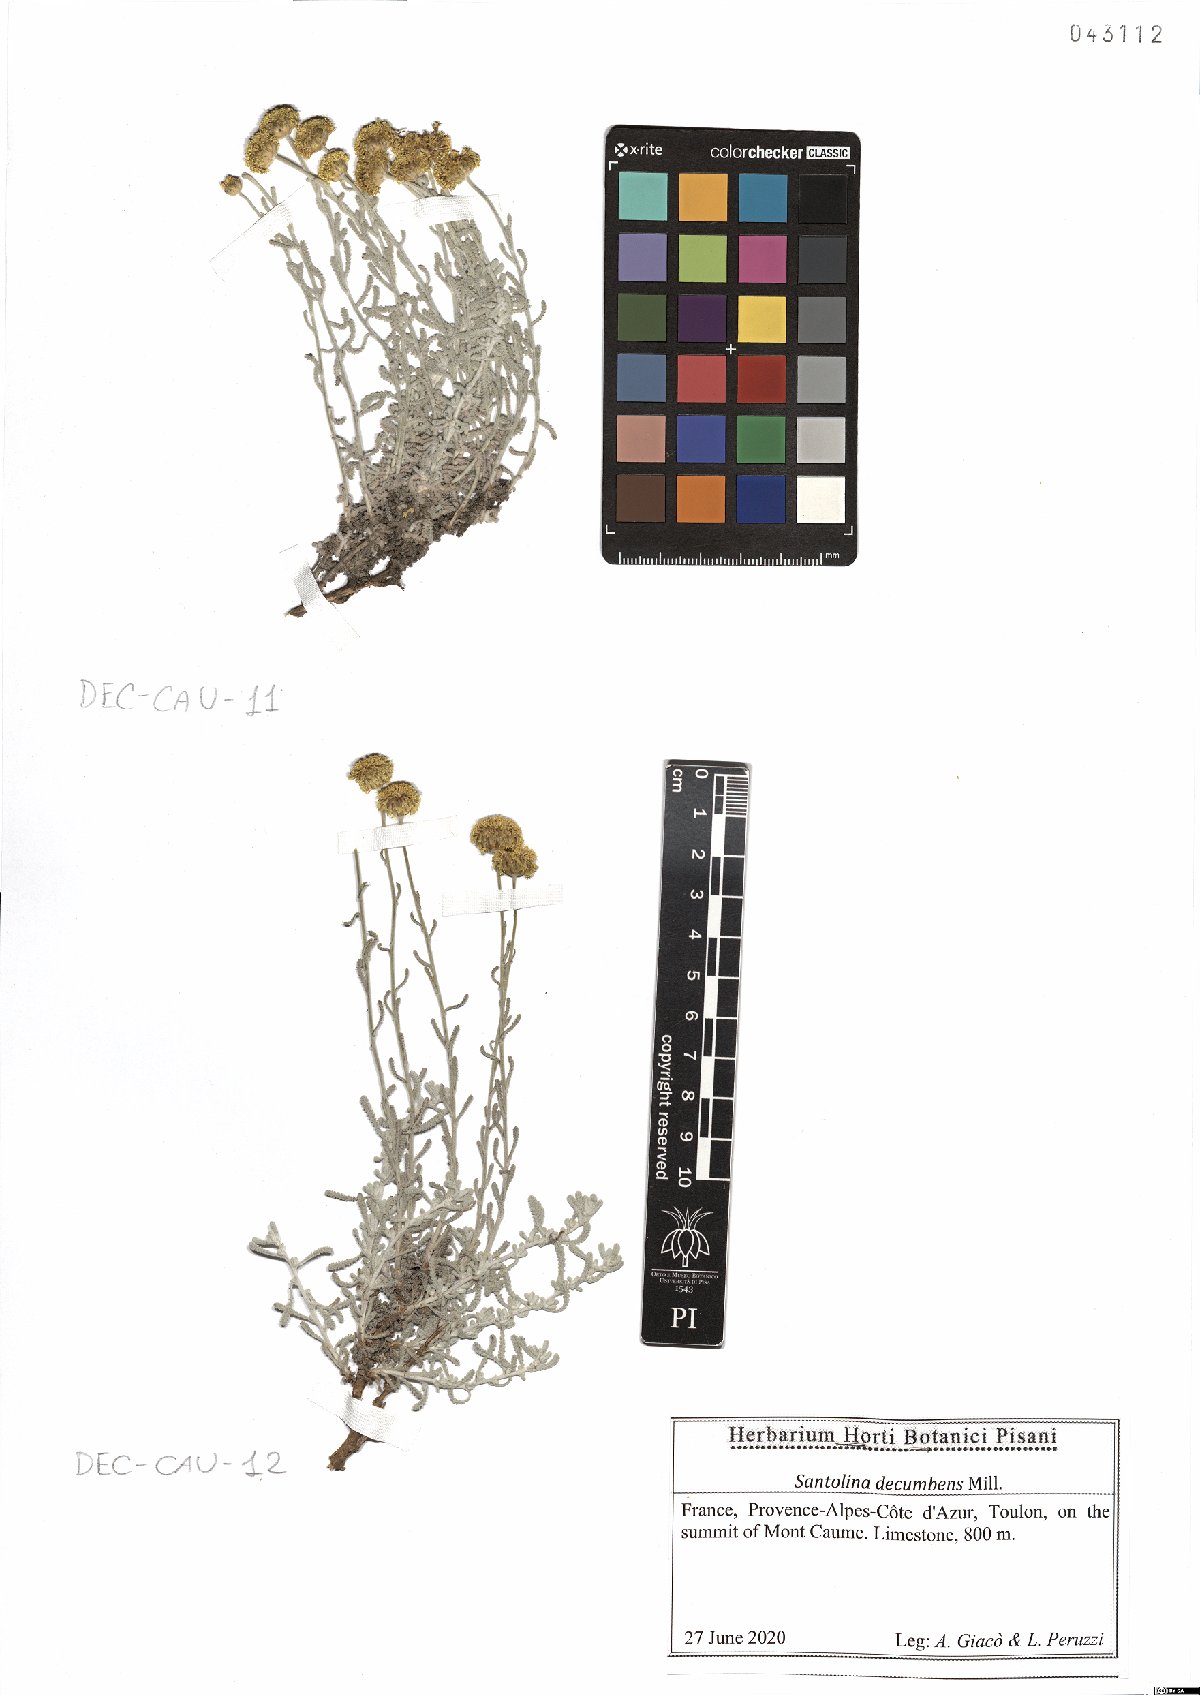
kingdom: Plantae
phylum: Tracheophyta
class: Magnoliopsida
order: Asterales
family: Asteraceae
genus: Santolina
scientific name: Santolina decumbens
